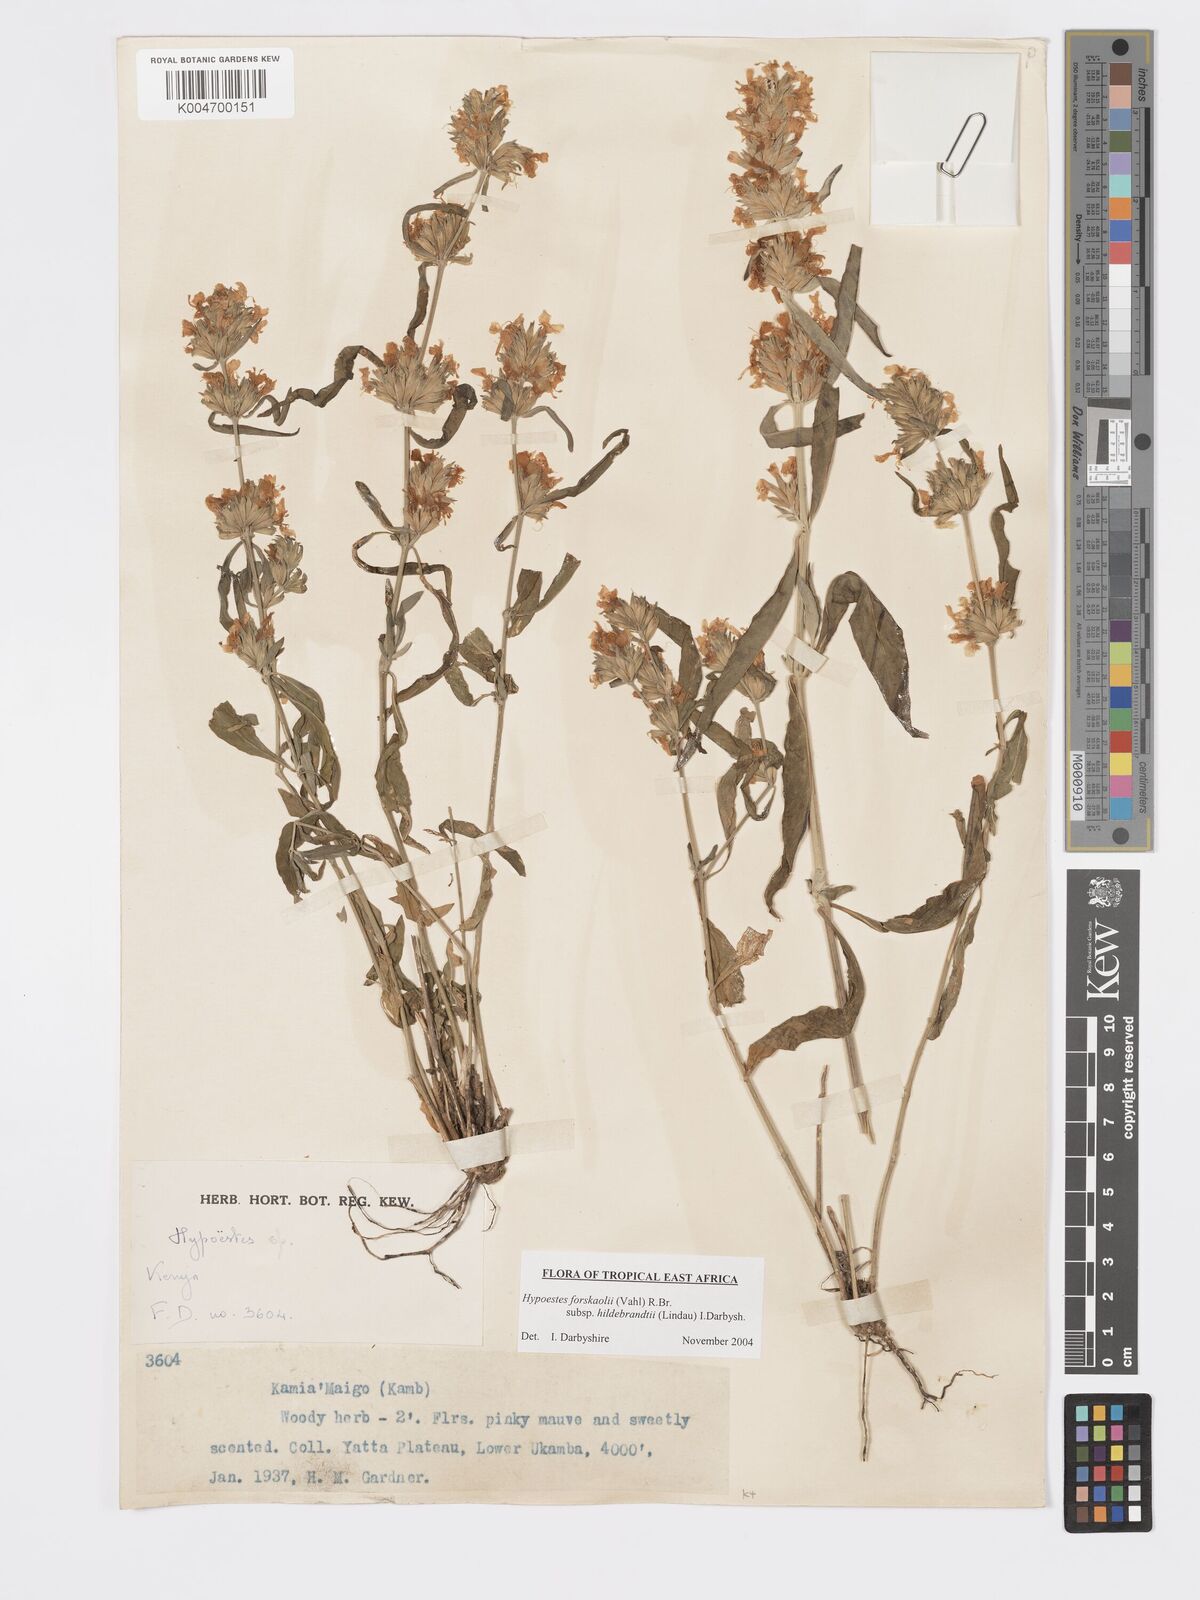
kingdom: Plantae
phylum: Tracheophyta
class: Magnoliopsida
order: Lamiales
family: Acanthaceae
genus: Hypoestes
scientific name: Hypoestes forskaolii
